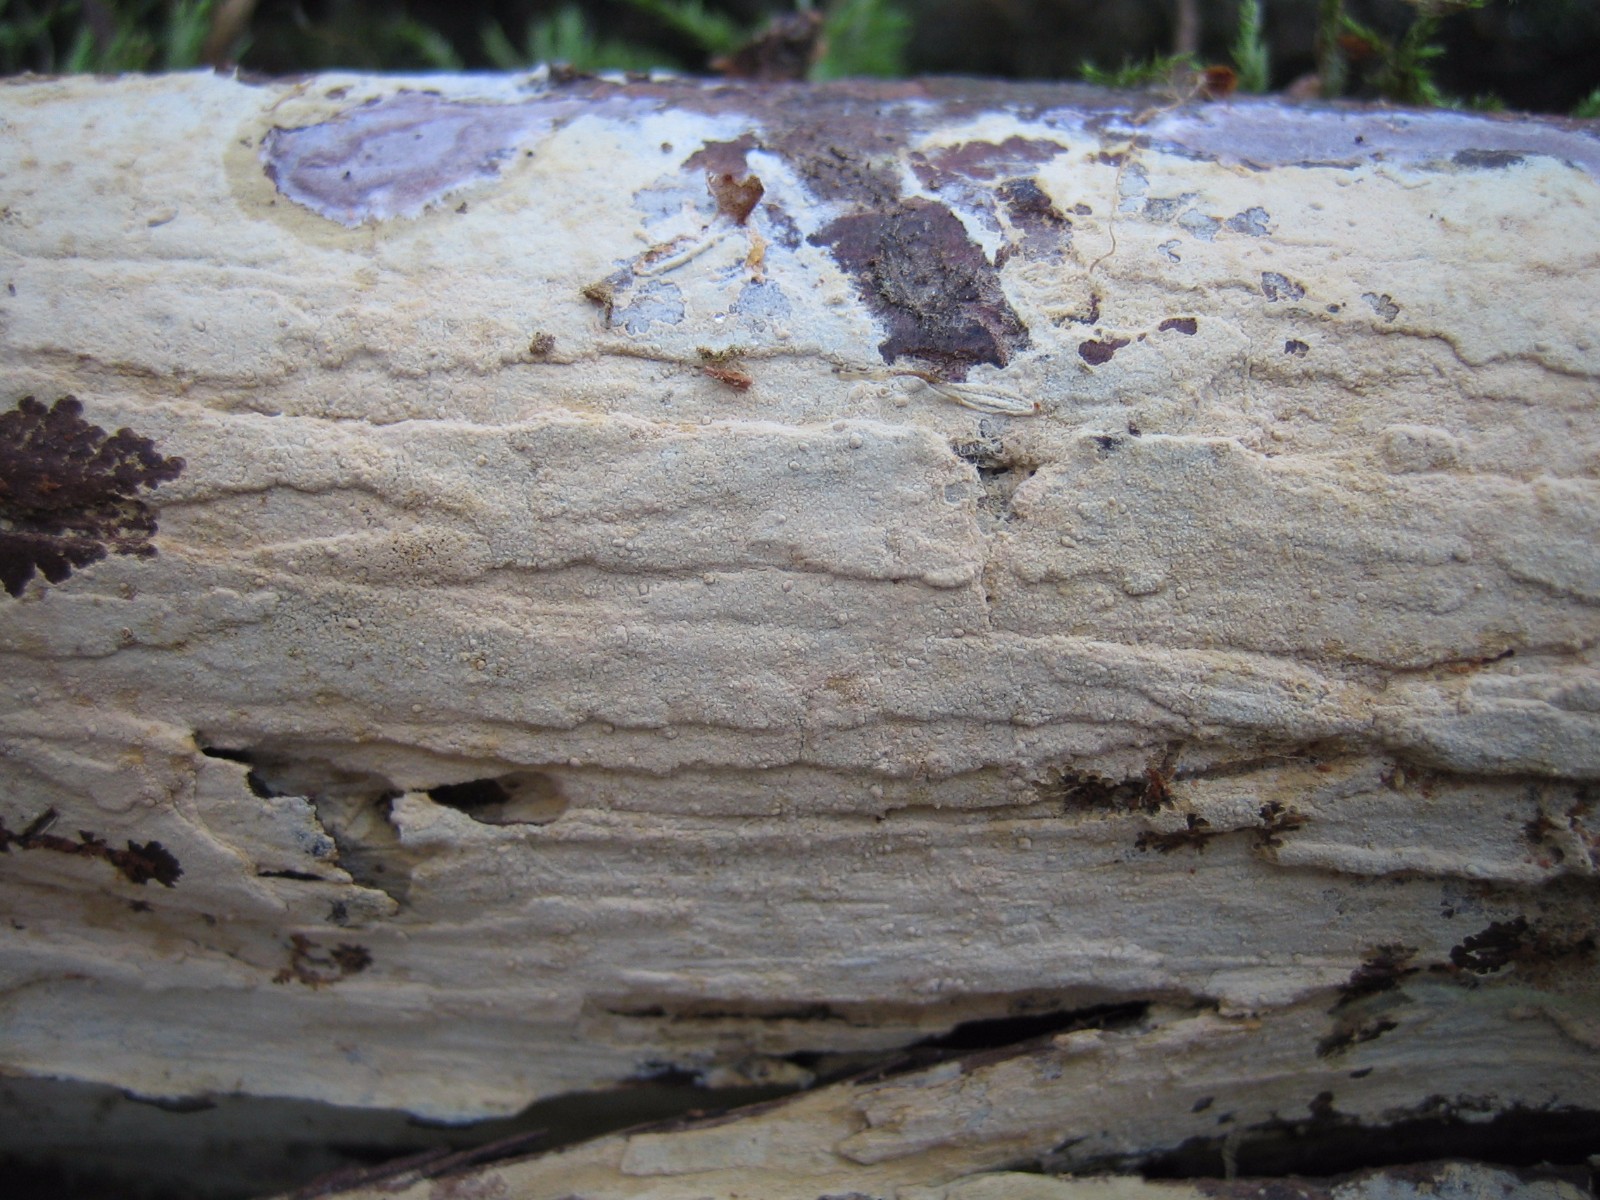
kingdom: Fungi
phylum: Basidiomycota
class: Agaricomycetes
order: Corticiales
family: Corticiaceae
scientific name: Corticiaceae
